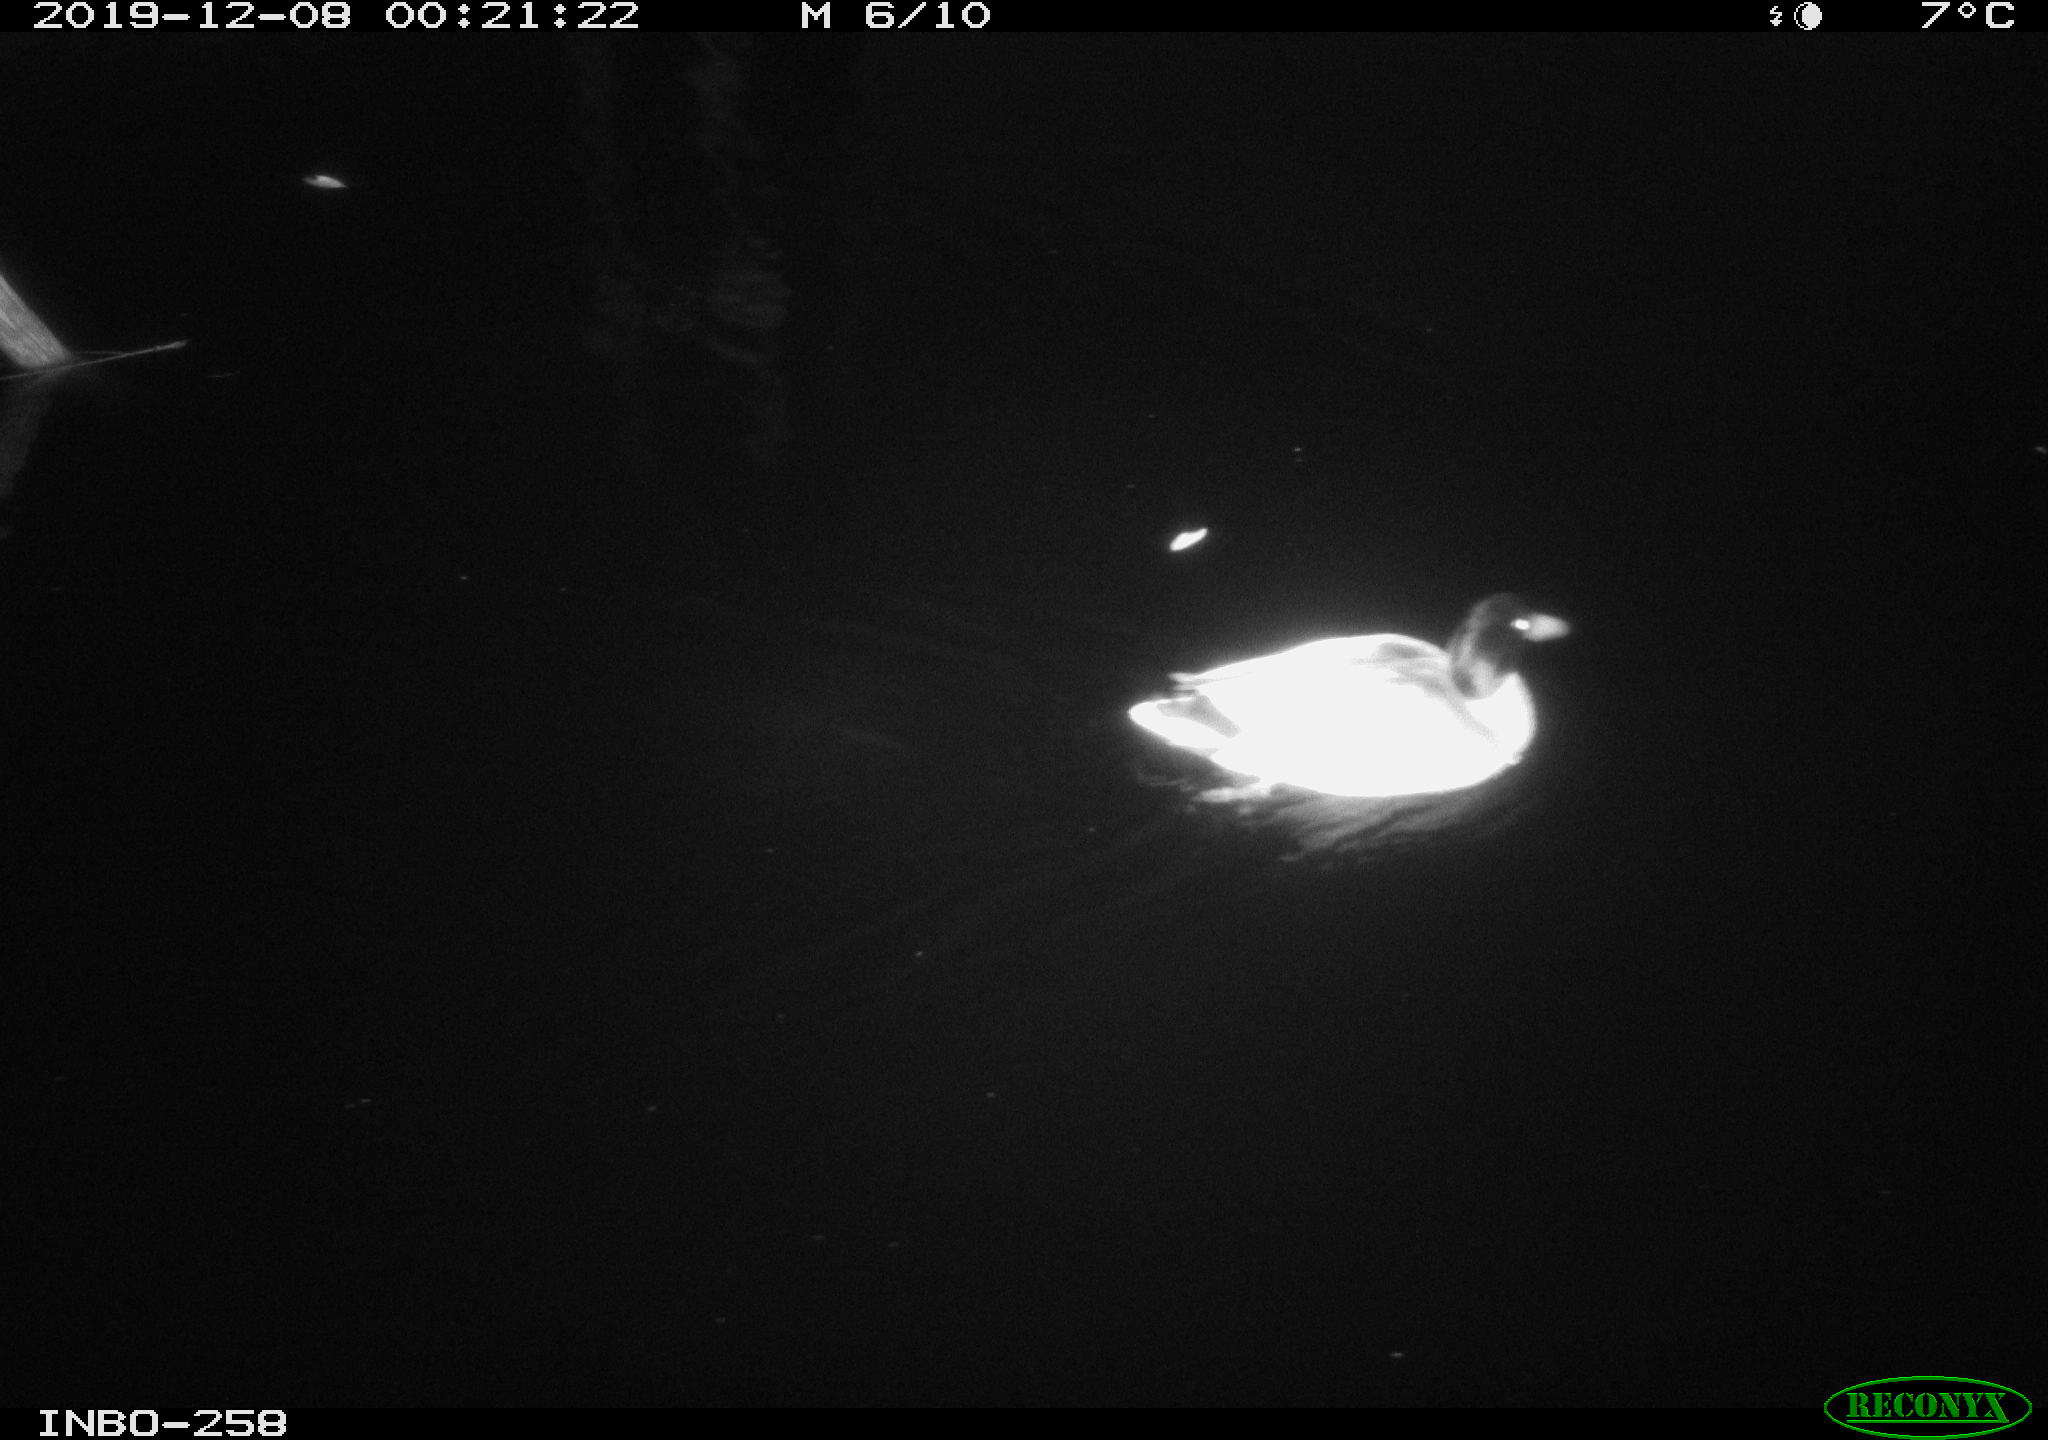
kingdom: Animalia
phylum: Chordata
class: Aves
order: Anseriformes
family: Anatidae
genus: Anas
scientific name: Anas platyrhynchos
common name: Mallard
